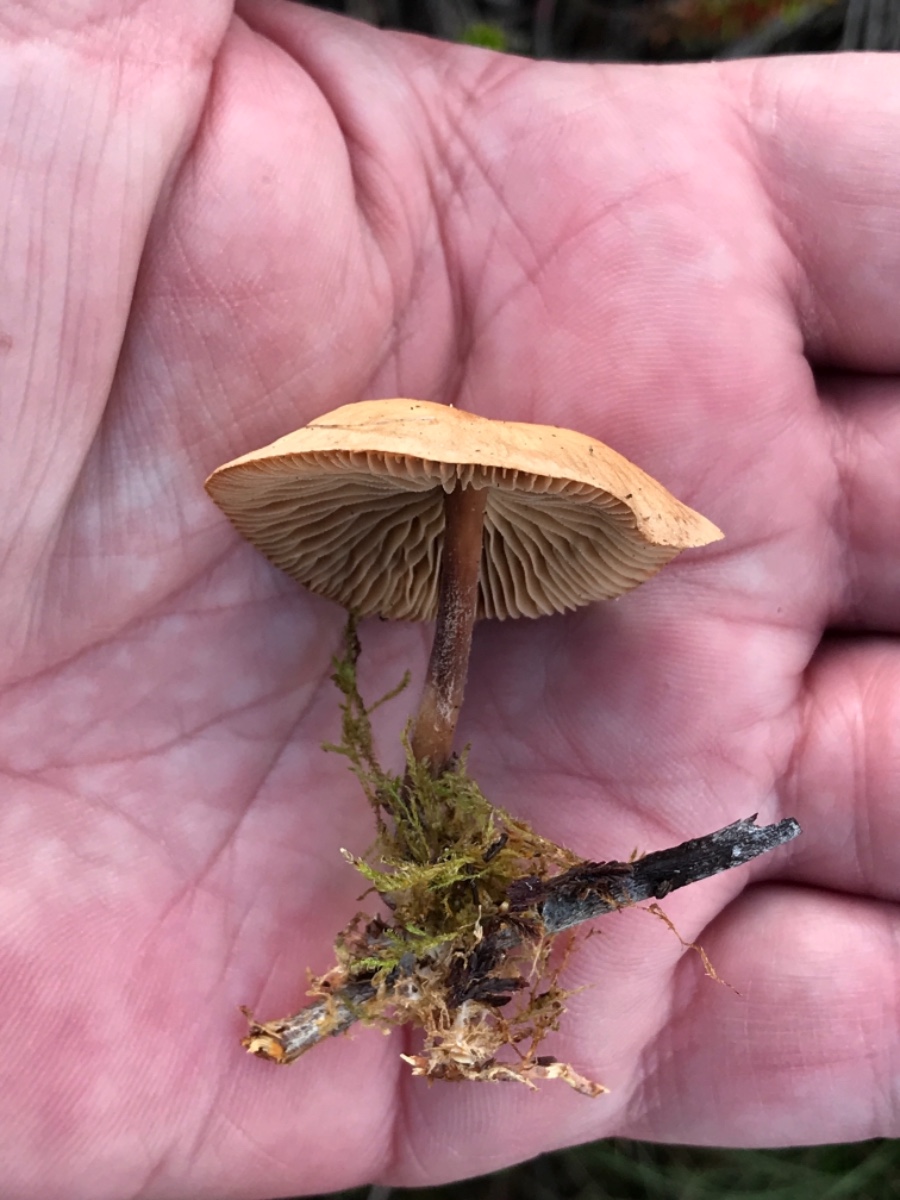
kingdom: Fungi
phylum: Basidiomycota
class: Agaricomycetes
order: Agaricales
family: Omphalotaceae
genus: Collybiopsis
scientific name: Collybiopsis peronata
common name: bestøvlet fladhat
